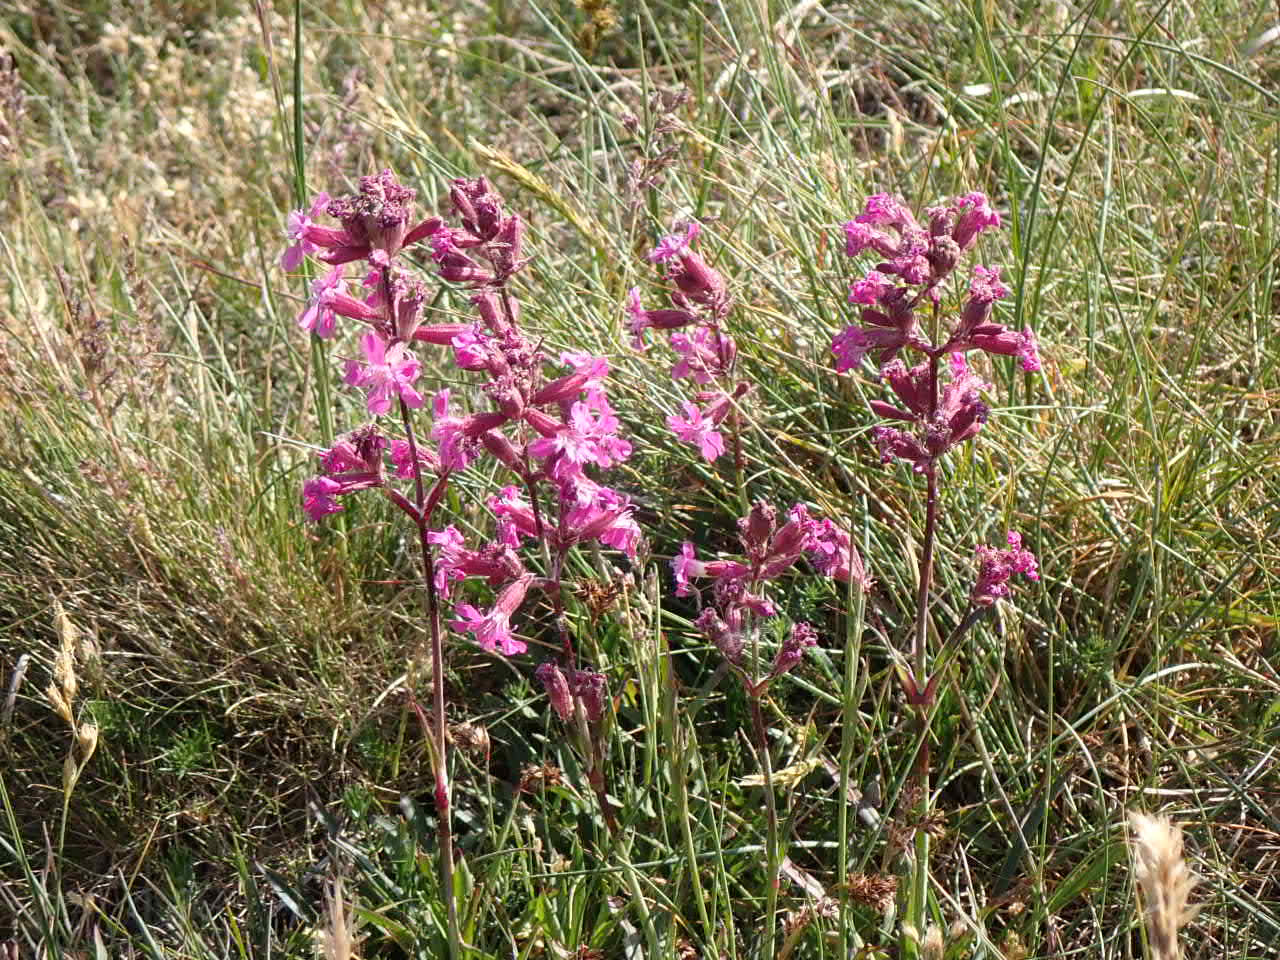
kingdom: Plantae
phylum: Tracheophyta
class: Magnoliopsida
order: Caryophyllales
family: Caryophyllaceae
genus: Viscaria
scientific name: Viscaria vulgaris
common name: Tjærenellike
